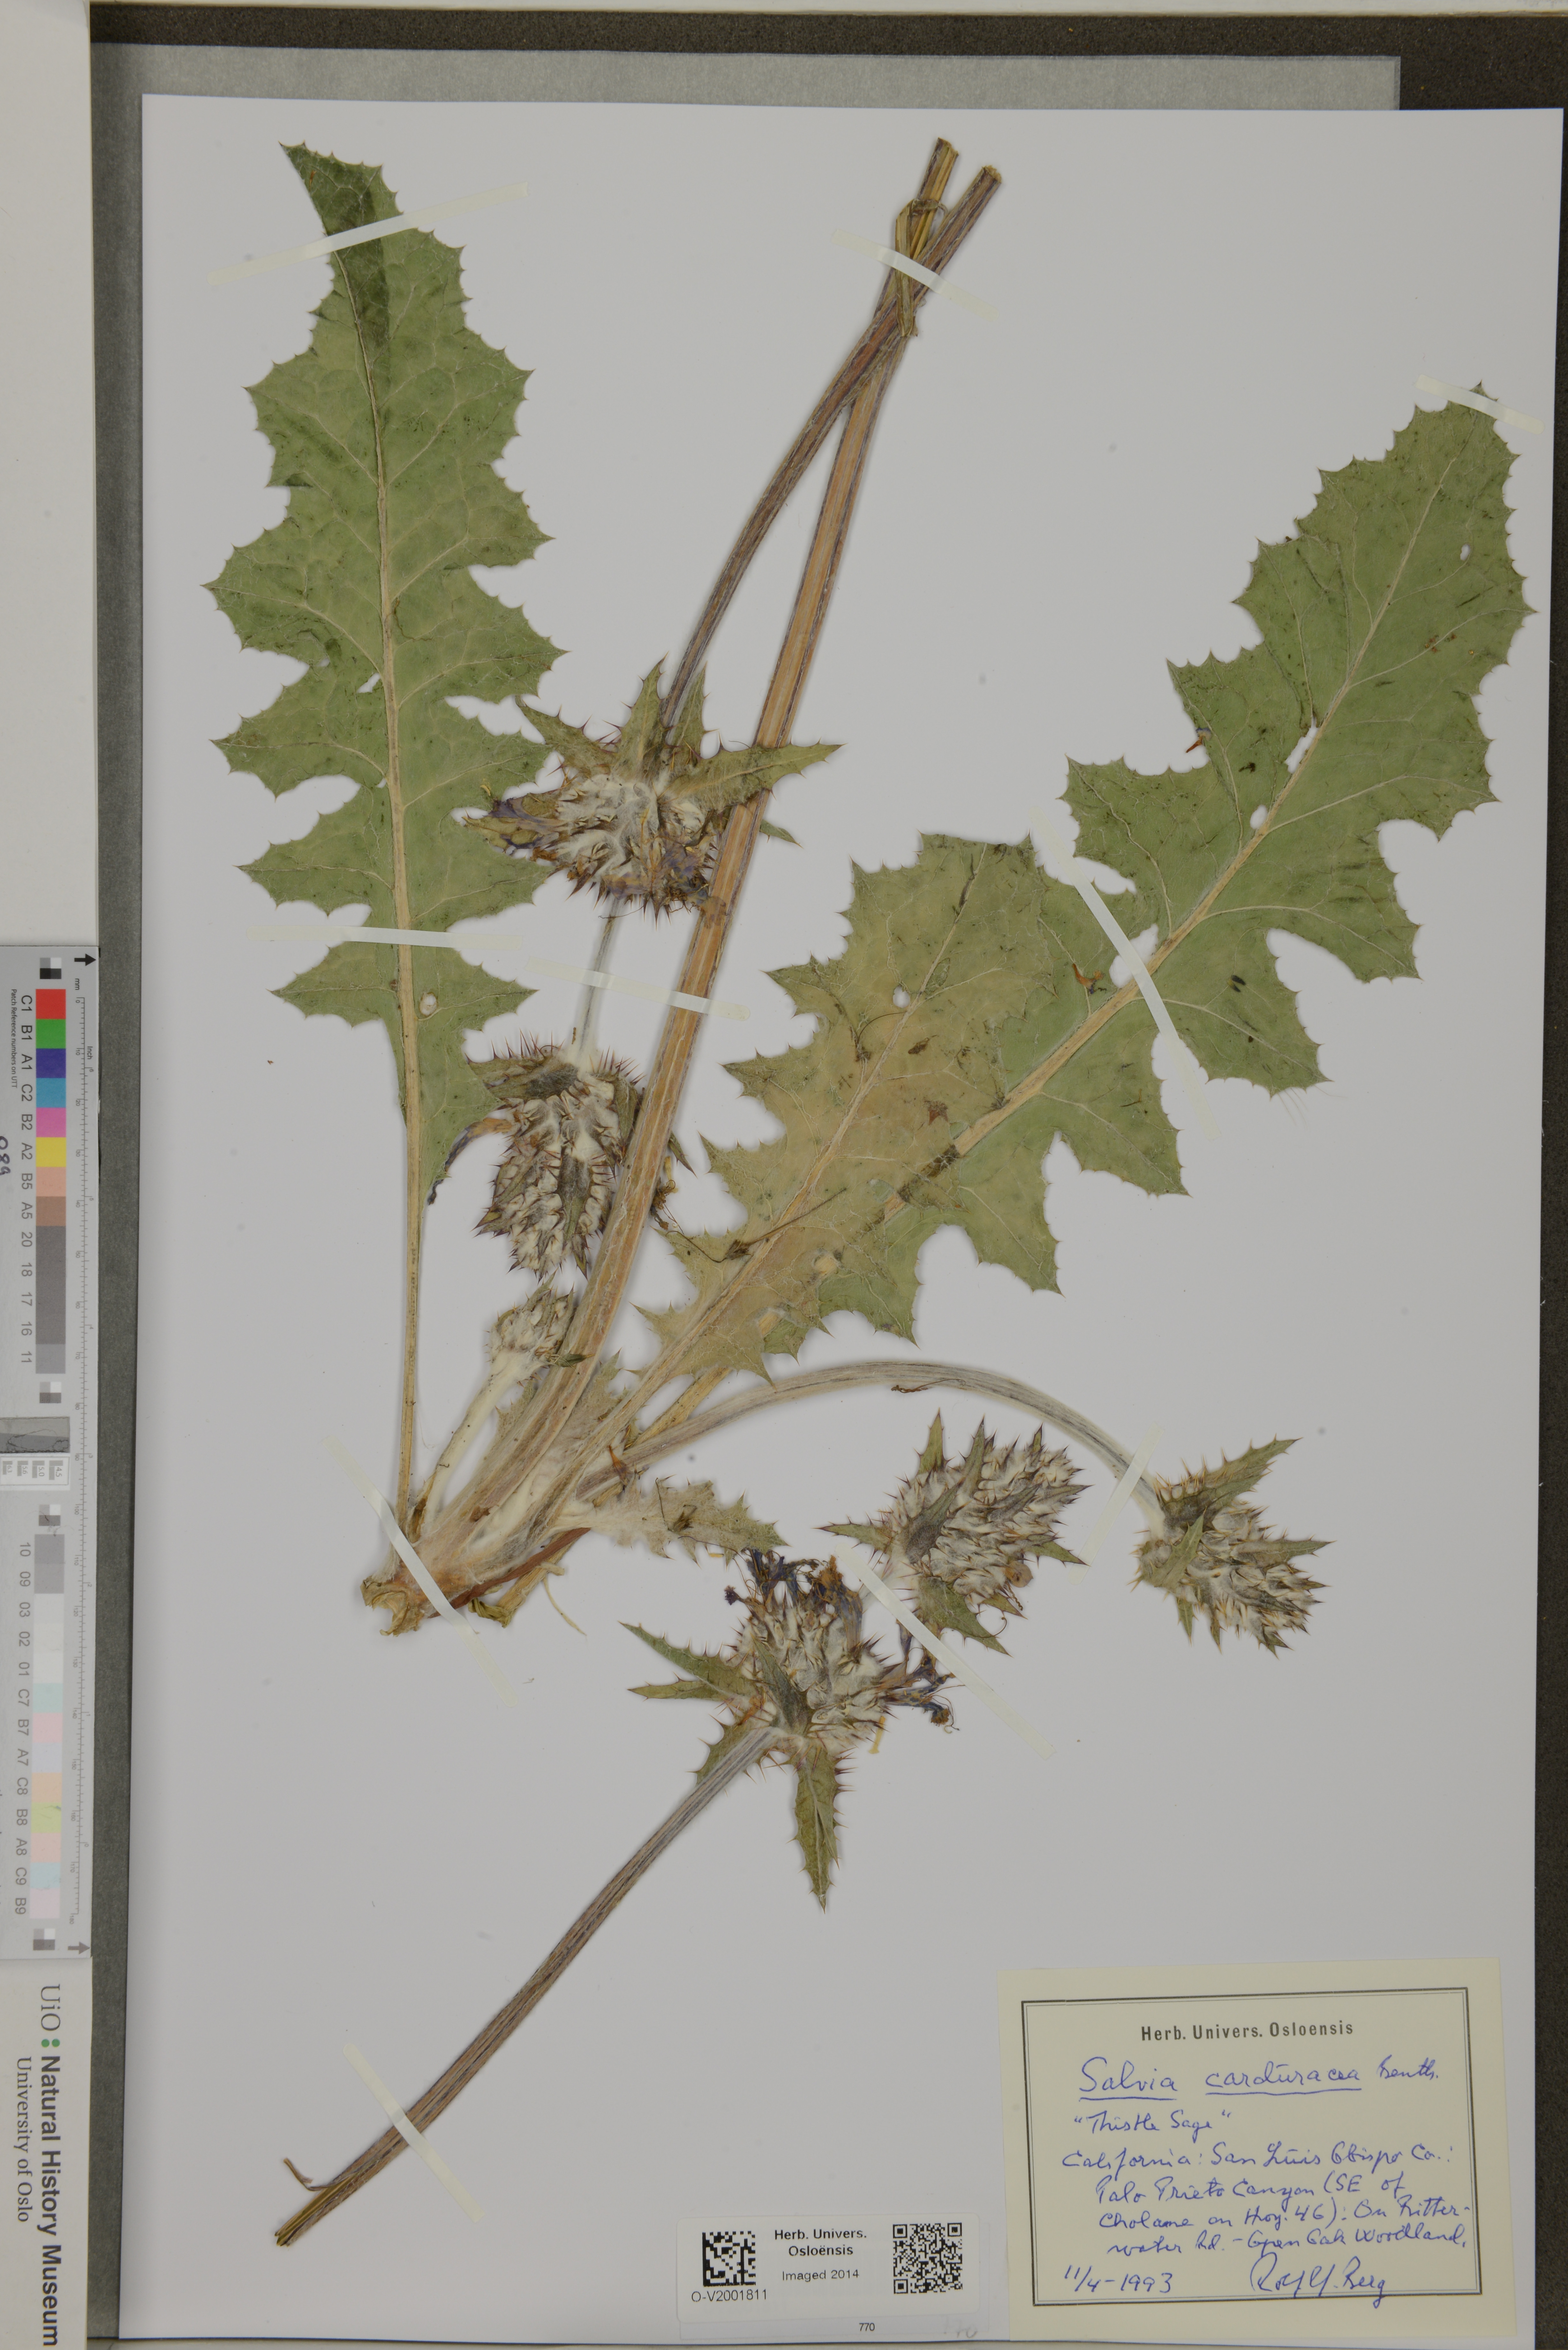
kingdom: Plantae
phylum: Tracheophyta
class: Magnoliopsida
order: Lamiales
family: Lamiaceae
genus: Salvia
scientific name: Salvia carduacea
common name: Thistle sage
